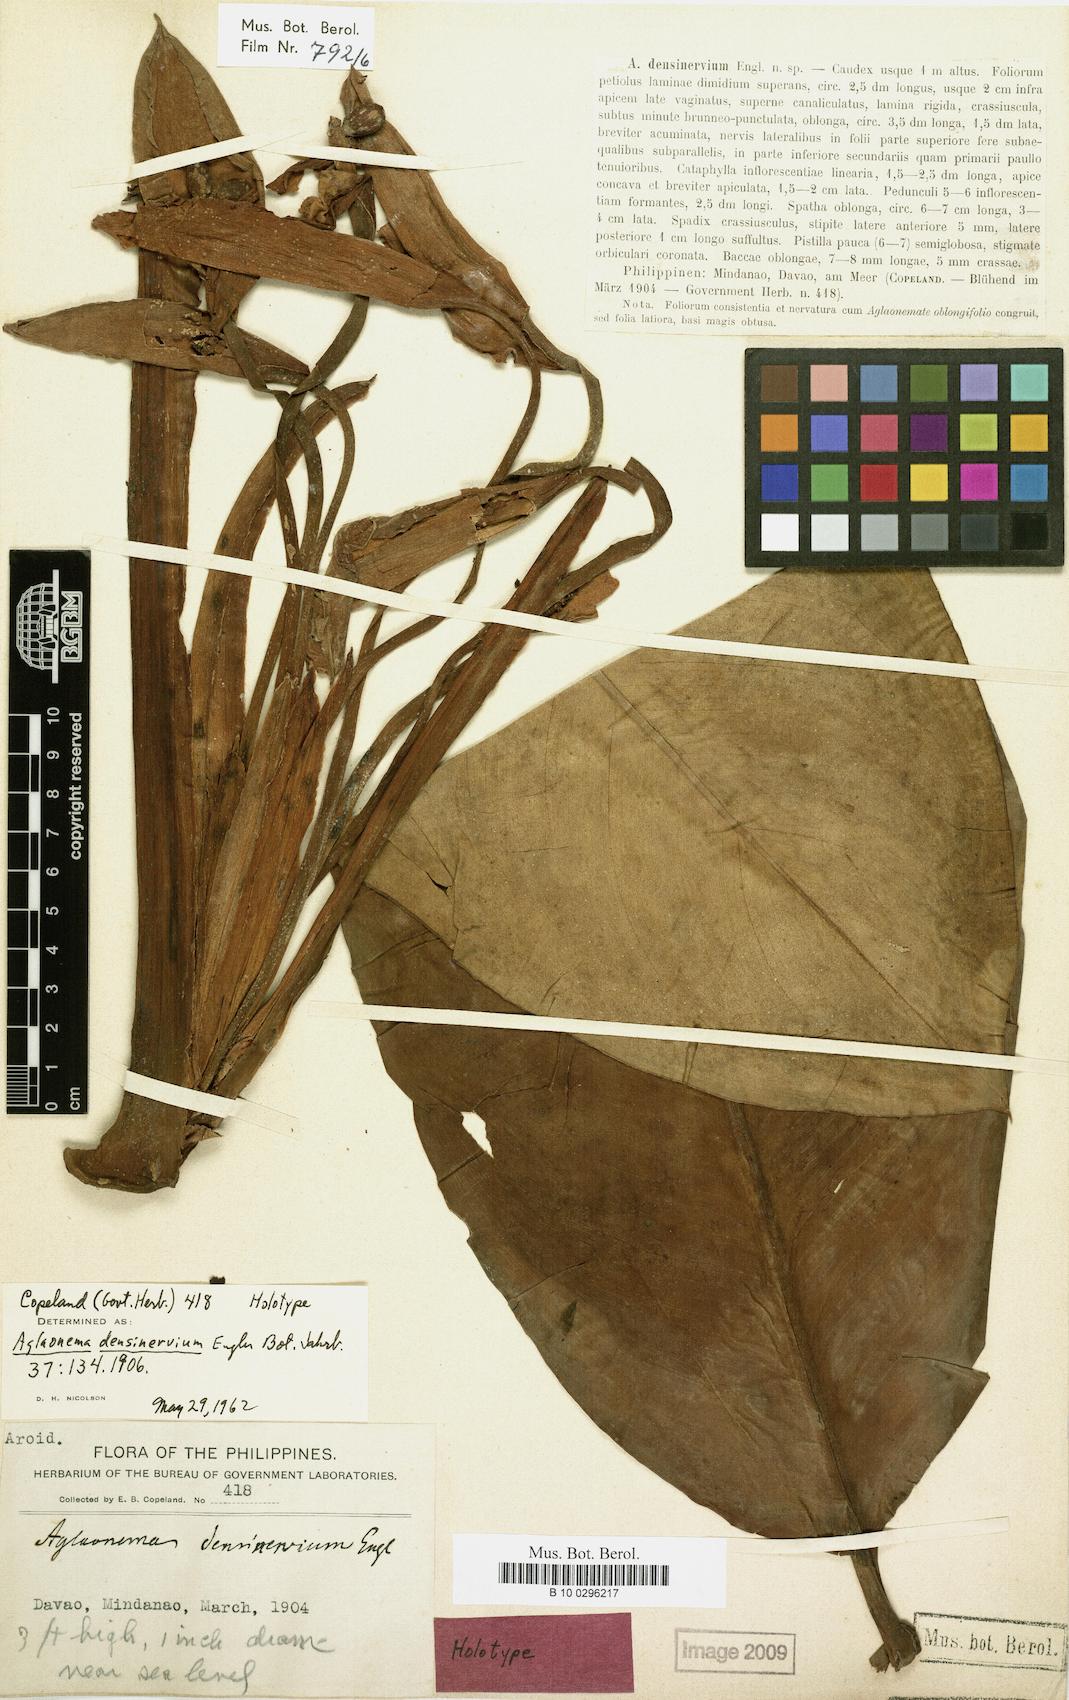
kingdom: Plantae
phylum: Tracheophyta
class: Liliopsida
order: Alismatales
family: Araceae
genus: Aglaonema
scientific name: Aglaonema densinervium
